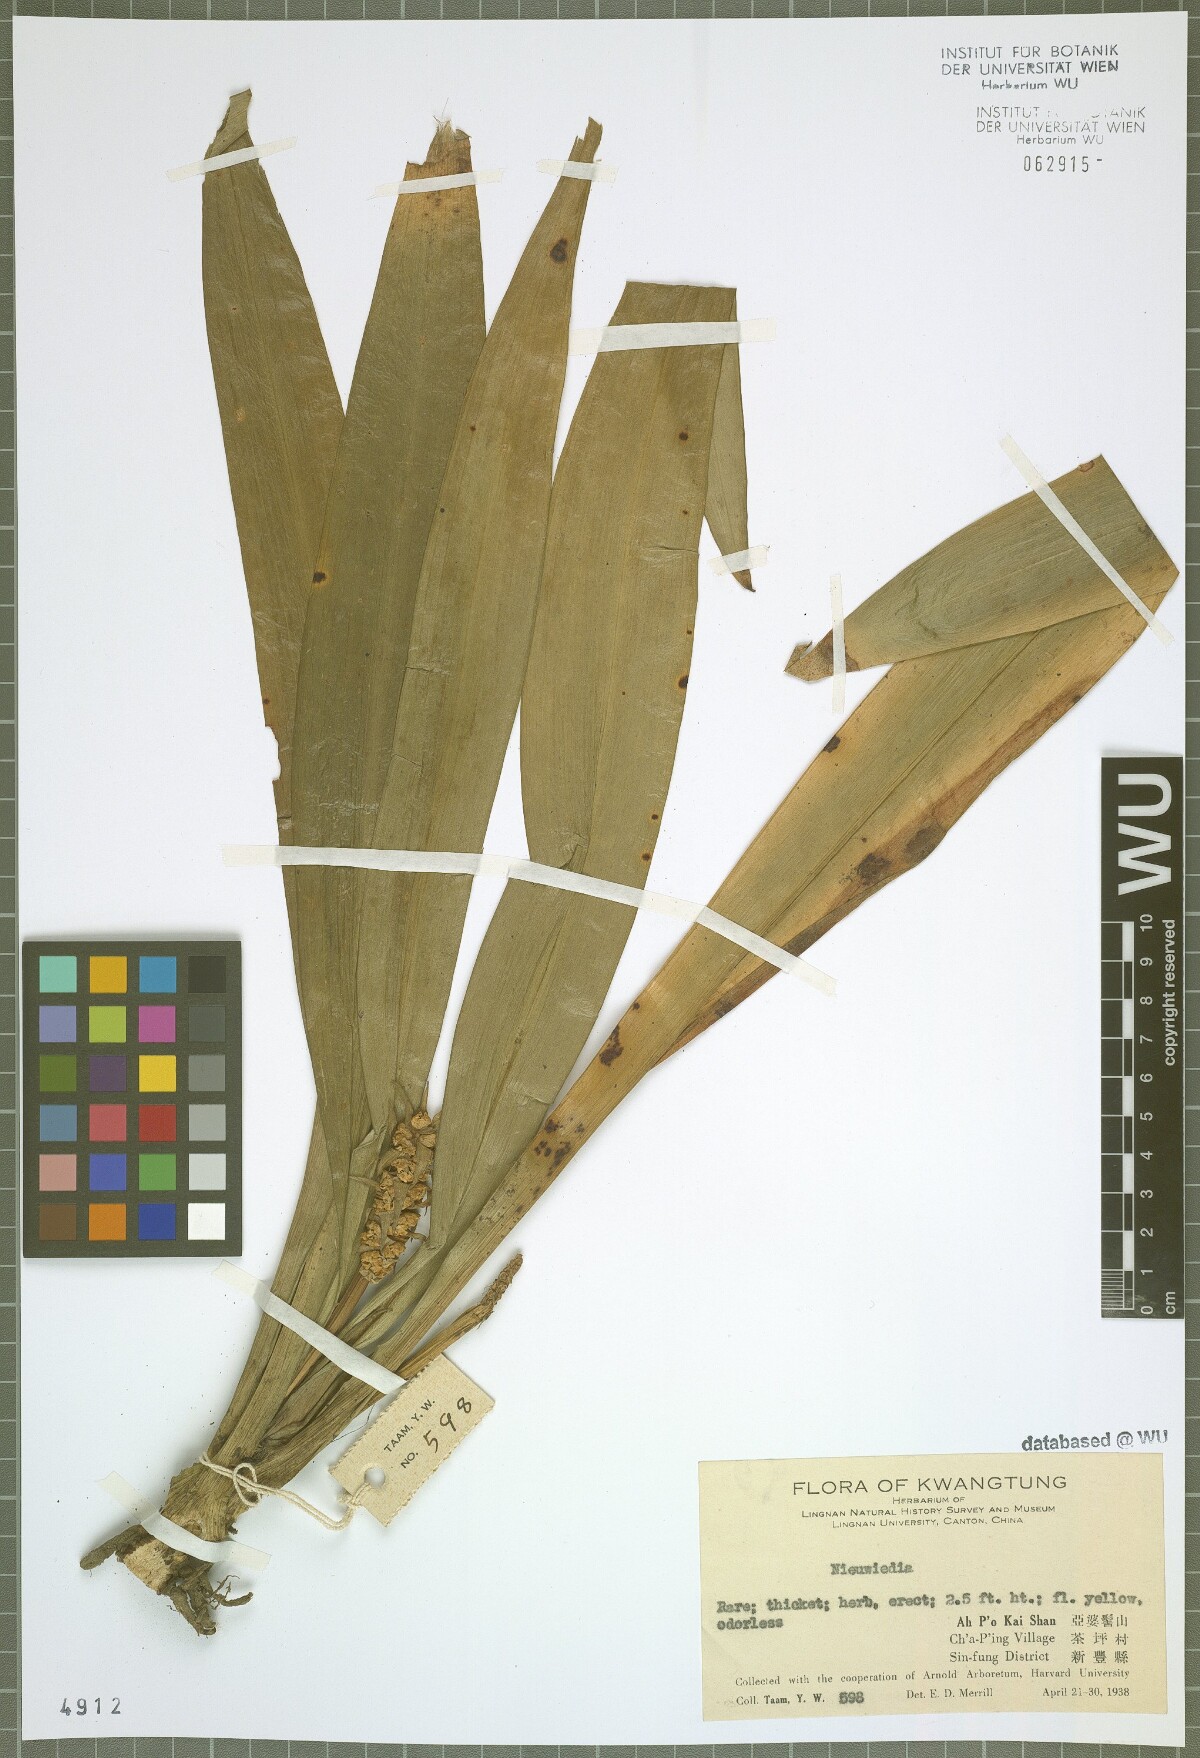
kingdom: Plantae
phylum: Tracheophyta
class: Liliopsida
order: Asparagales
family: Orchidaceae
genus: Neuwiedia
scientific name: Neuwiedia
